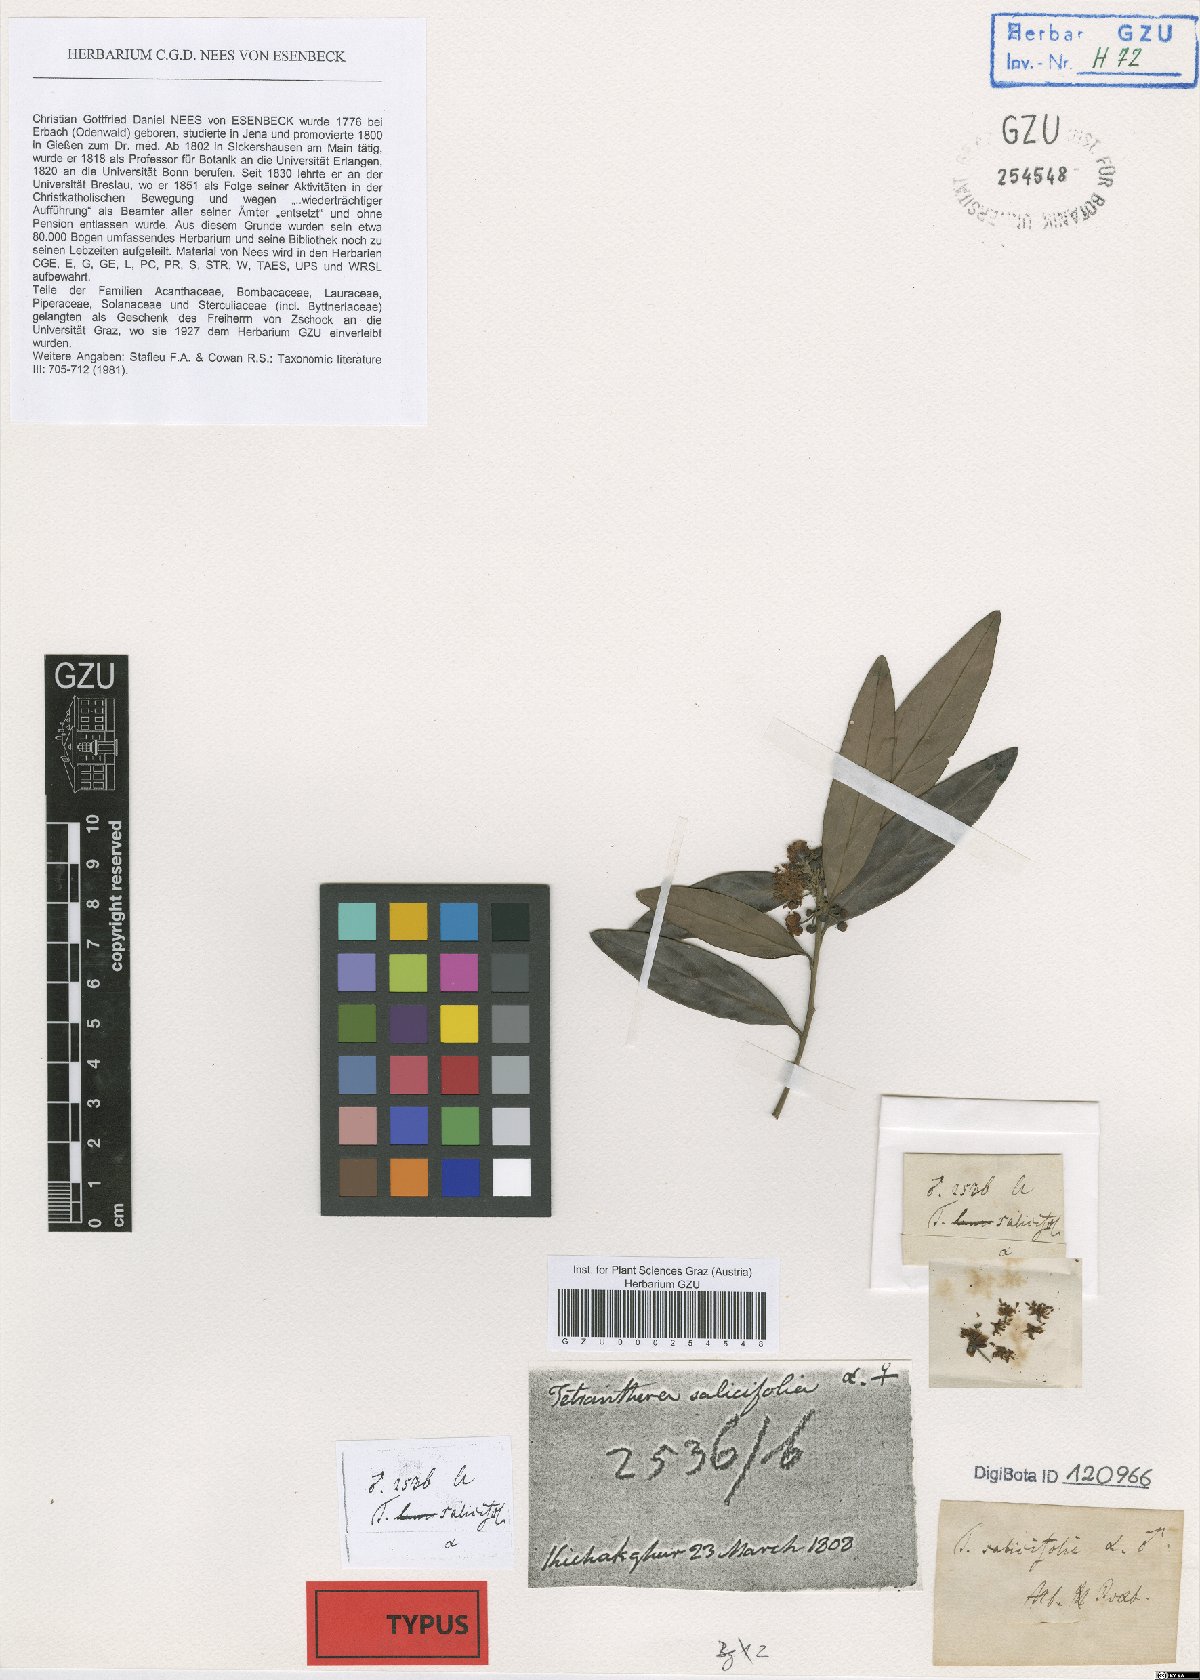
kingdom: Plantae
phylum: Tracheophyta
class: Magnoliopsida
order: Laurales
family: Lauraceae
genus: Litsea
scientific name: Litsea salicifolia
